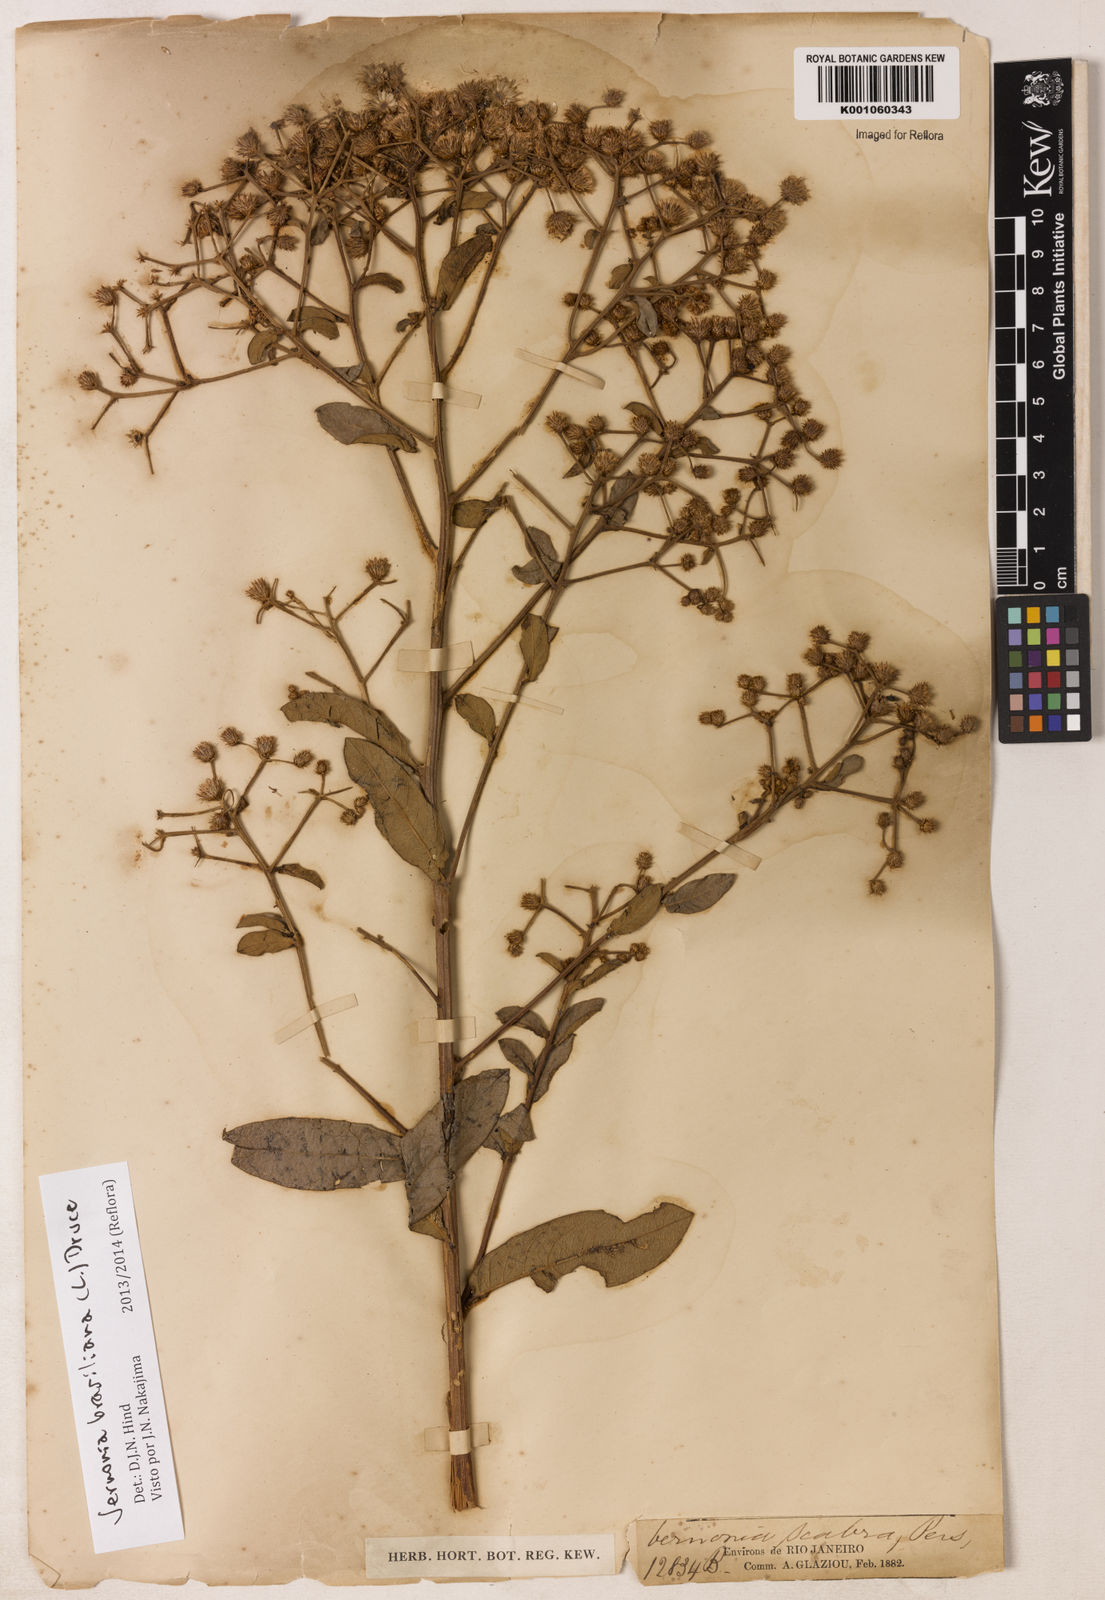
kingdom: Plantae
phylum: Tracheophyta
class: Magnoliopsida
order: Asterales
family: Asteraceae
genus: Vernonanthura
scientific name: Vernonanthura brasiliana
